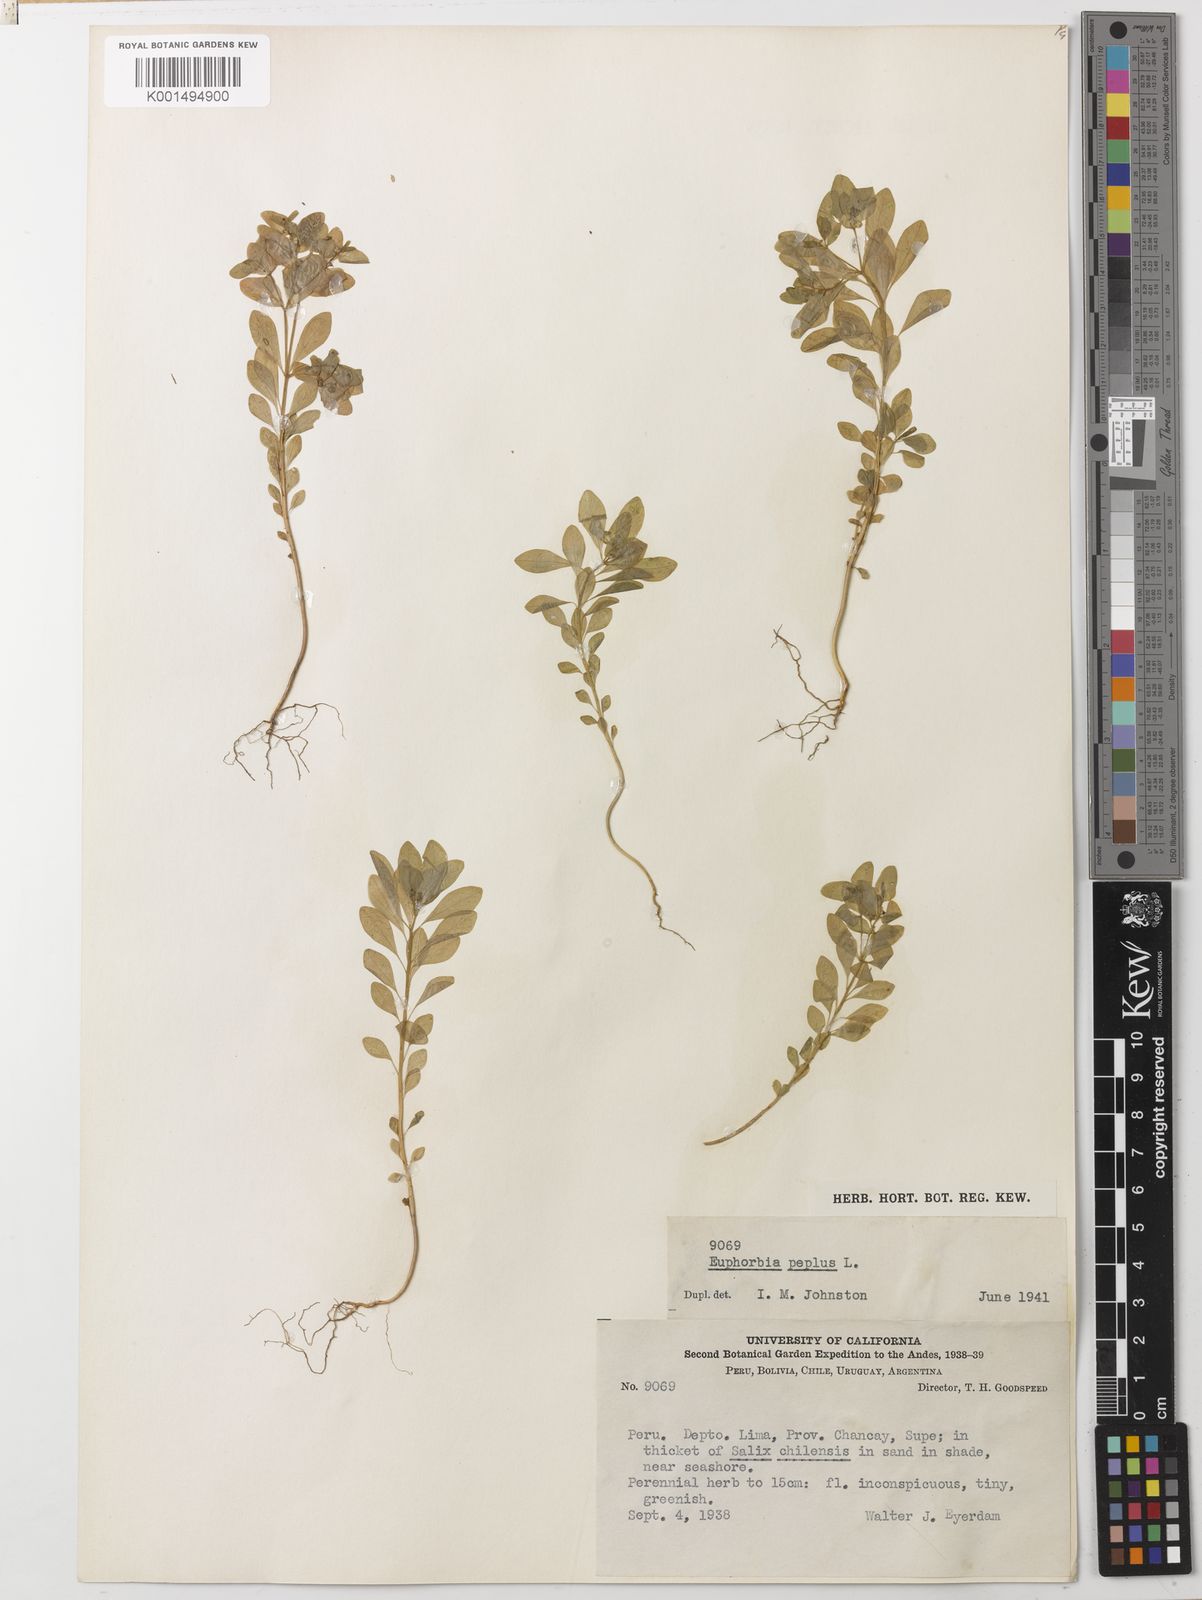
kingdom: Plantae
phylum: Tracheophyta
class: Magnoliopsida
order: Malpighiales
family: Euphorbiaceae
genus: Euphorbia
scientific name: Euphorbia peplus
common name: Petty spurge
